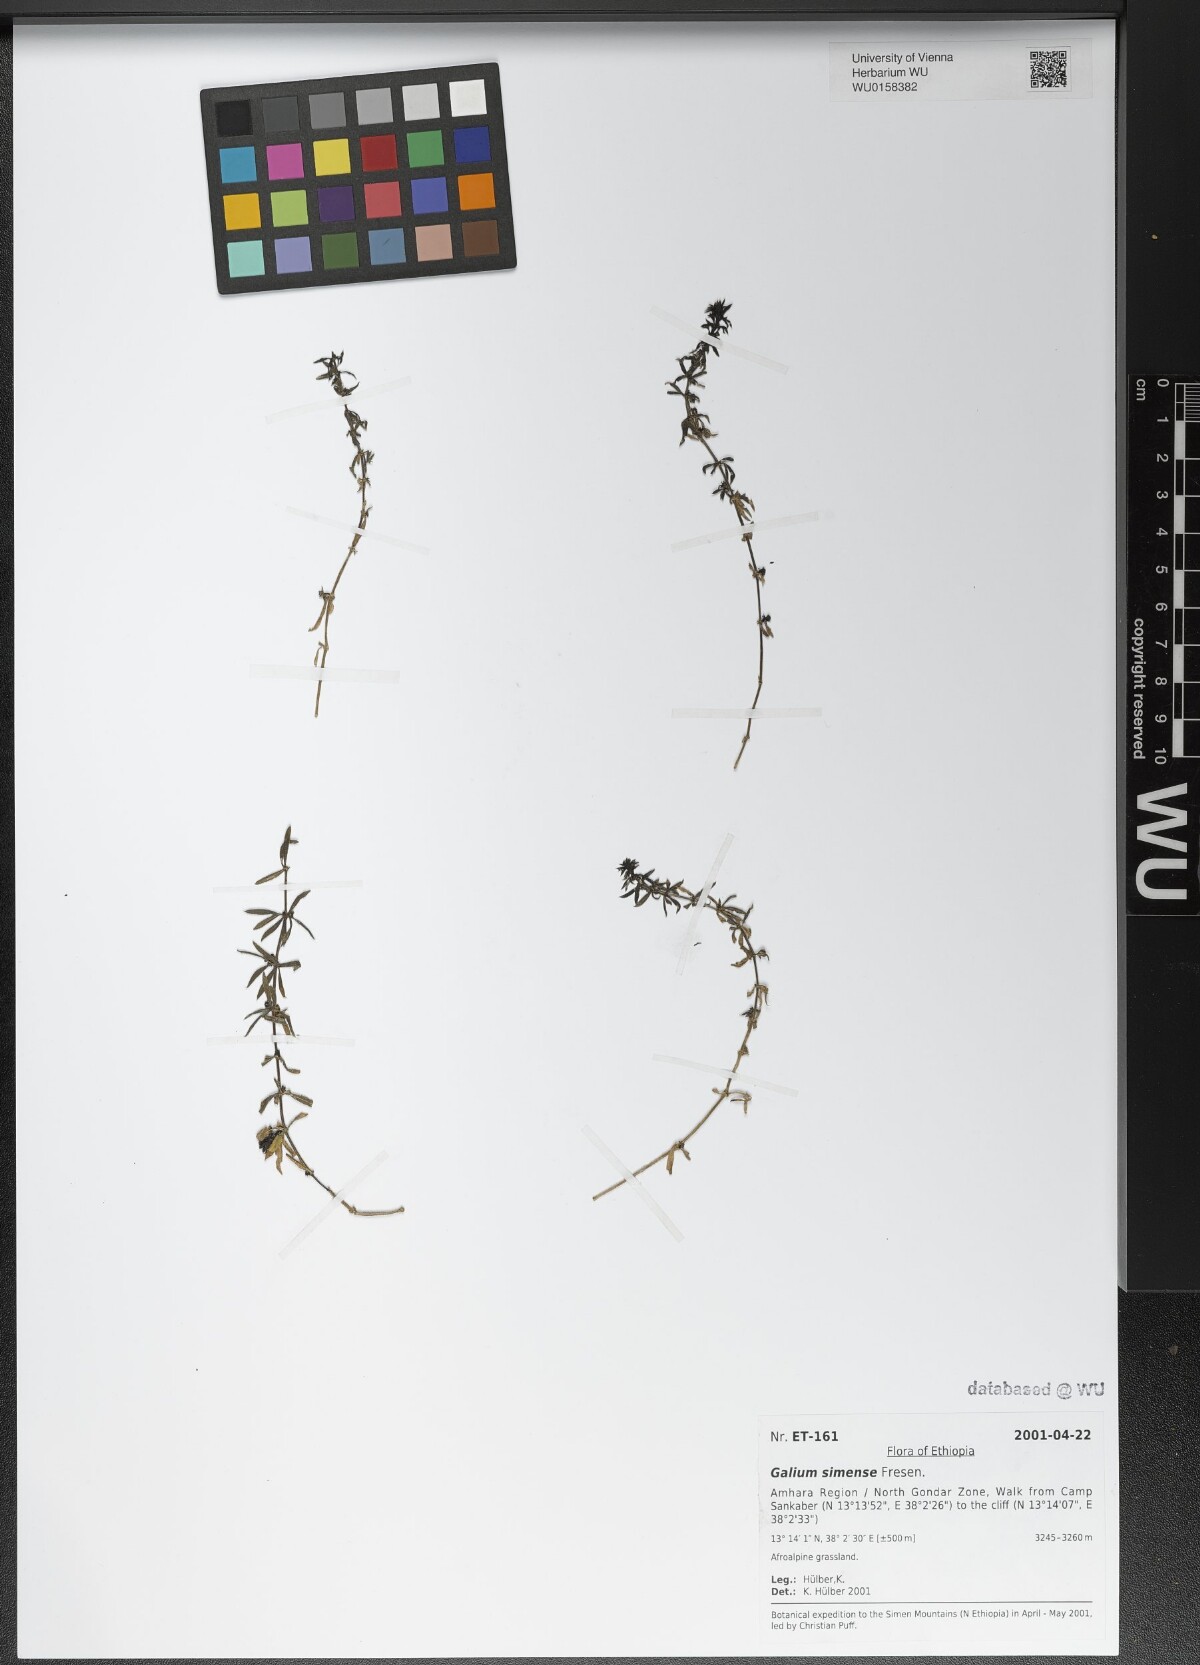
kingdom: Plantae
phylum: Tracheophyta
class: Magnoliopsida
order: Gentianales
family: Rubiaceae
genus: Galium
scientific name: Galium simense
